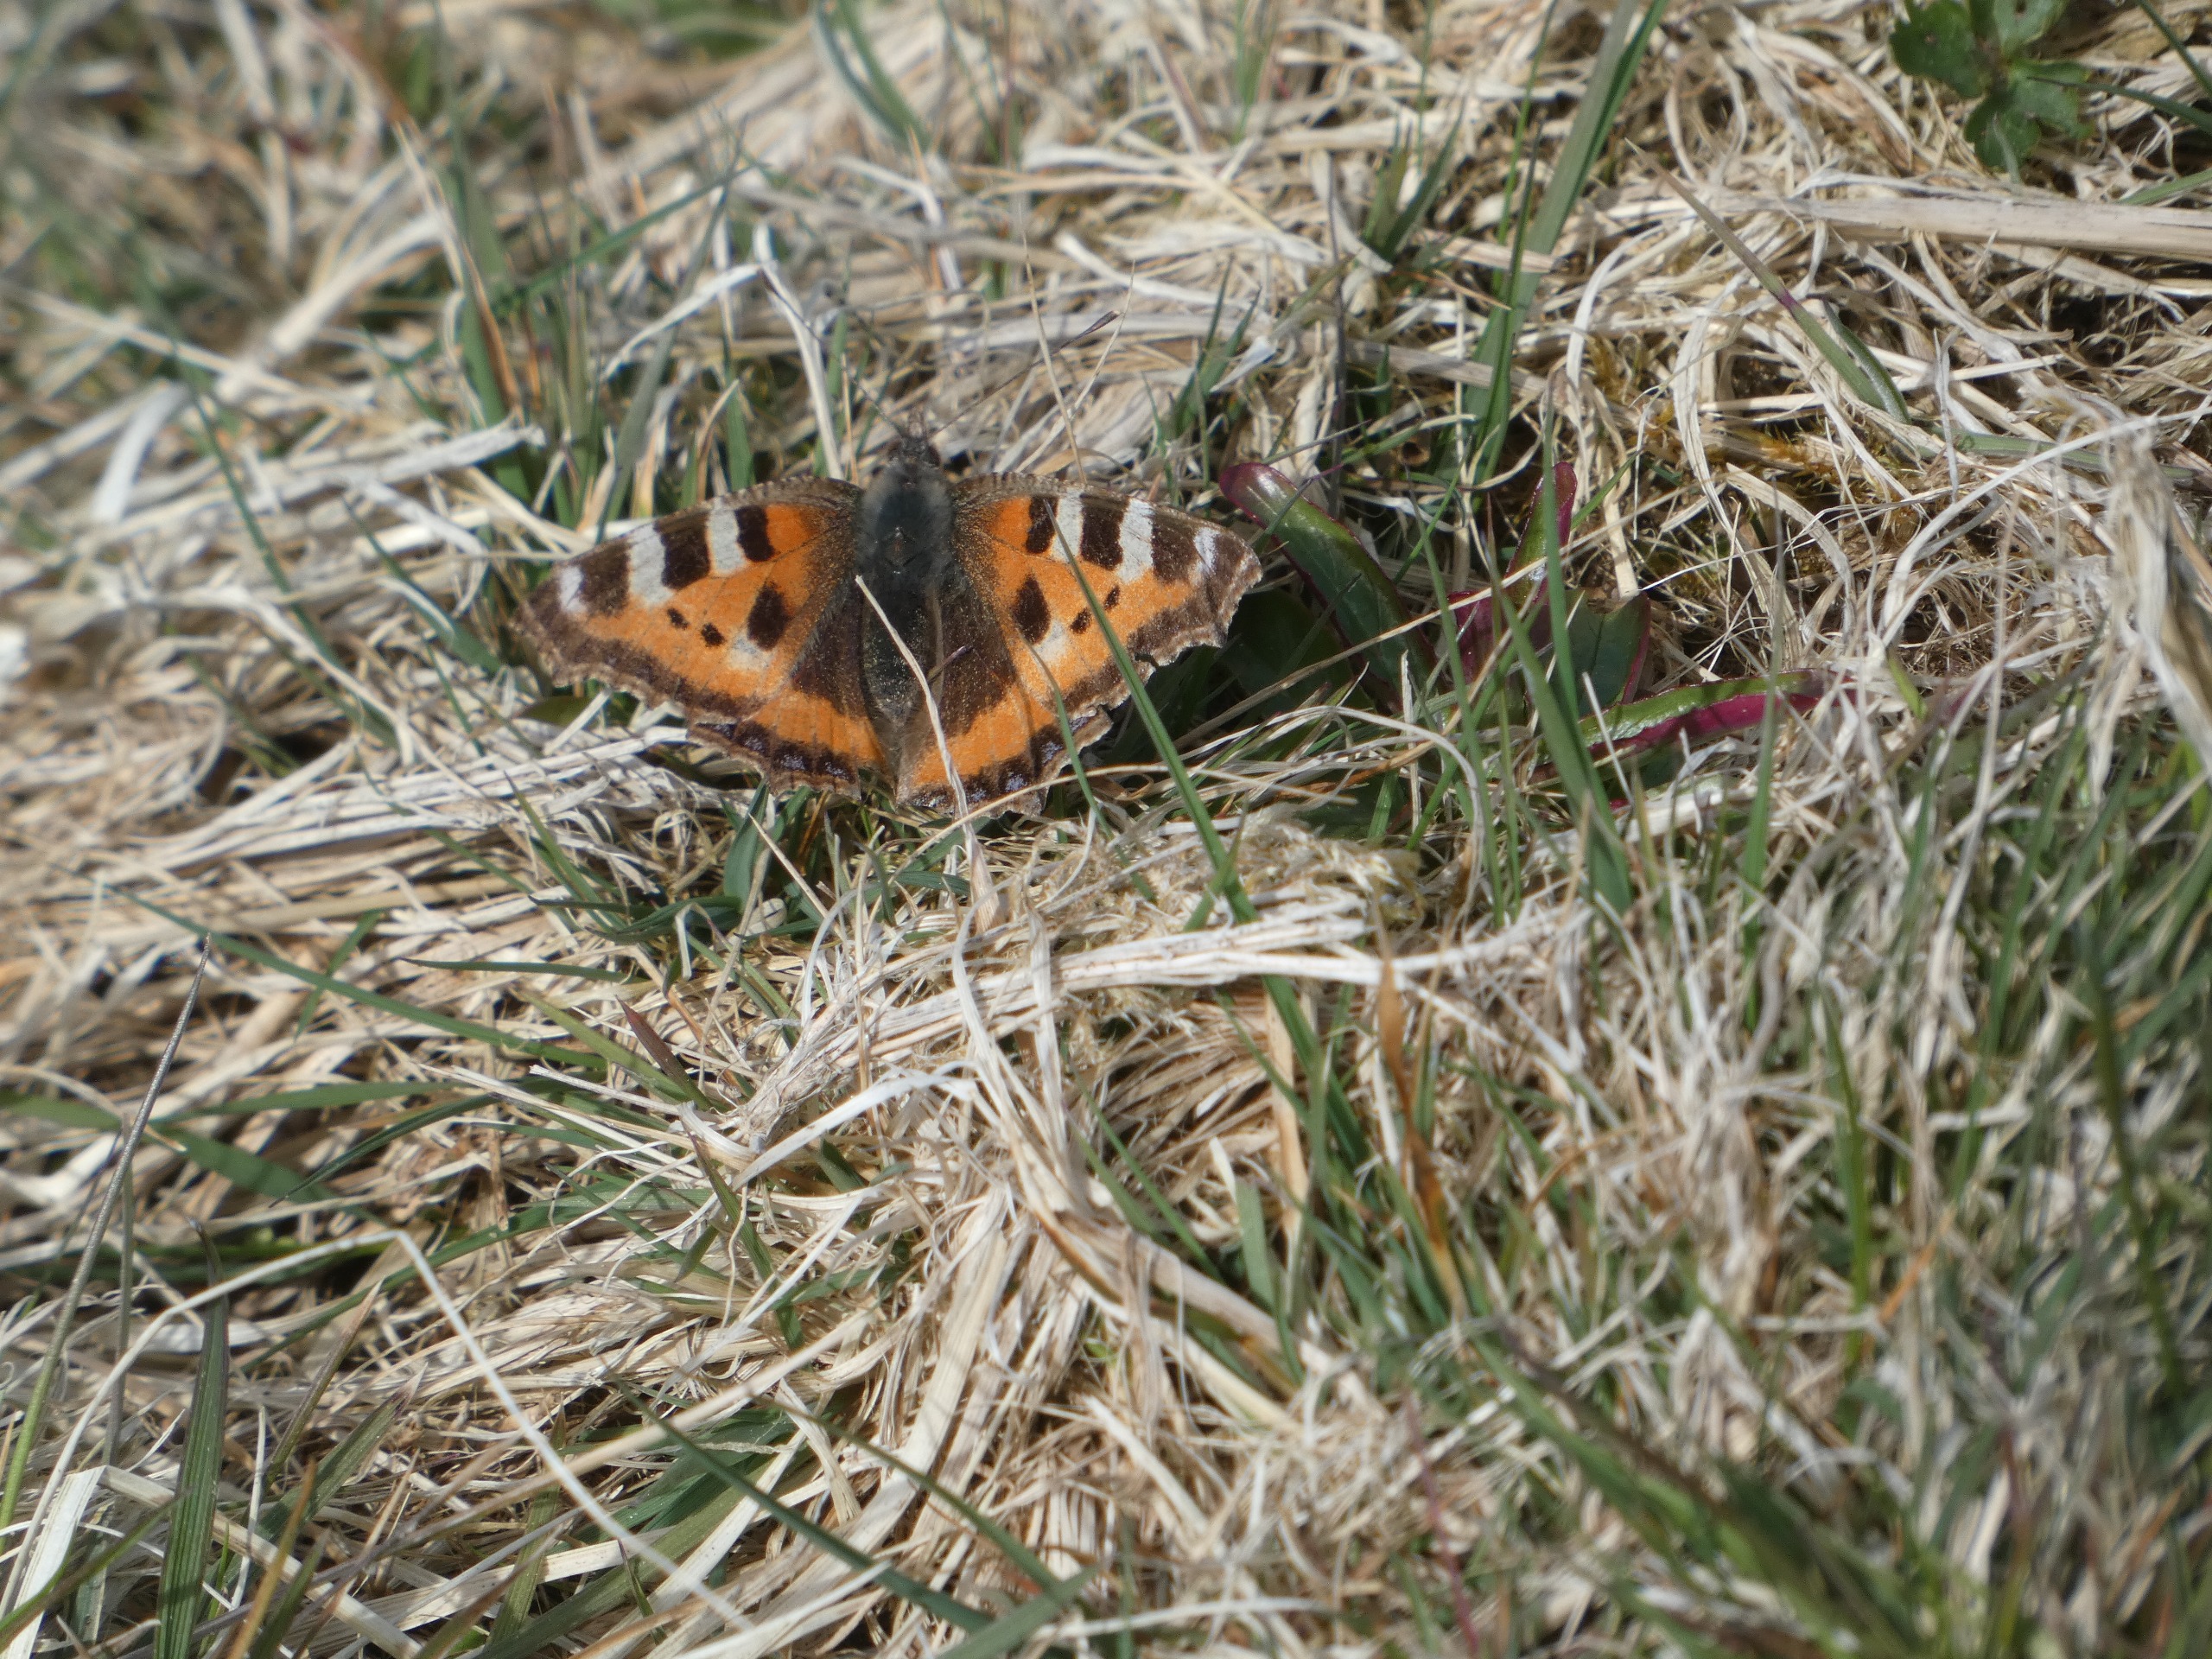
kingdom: Animalia
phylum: Arthropoda
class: Insecta
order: Lepidoptera
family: Nymphalidae
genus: Aglais
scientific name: Aglais urticae
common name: Nældens takvinge
